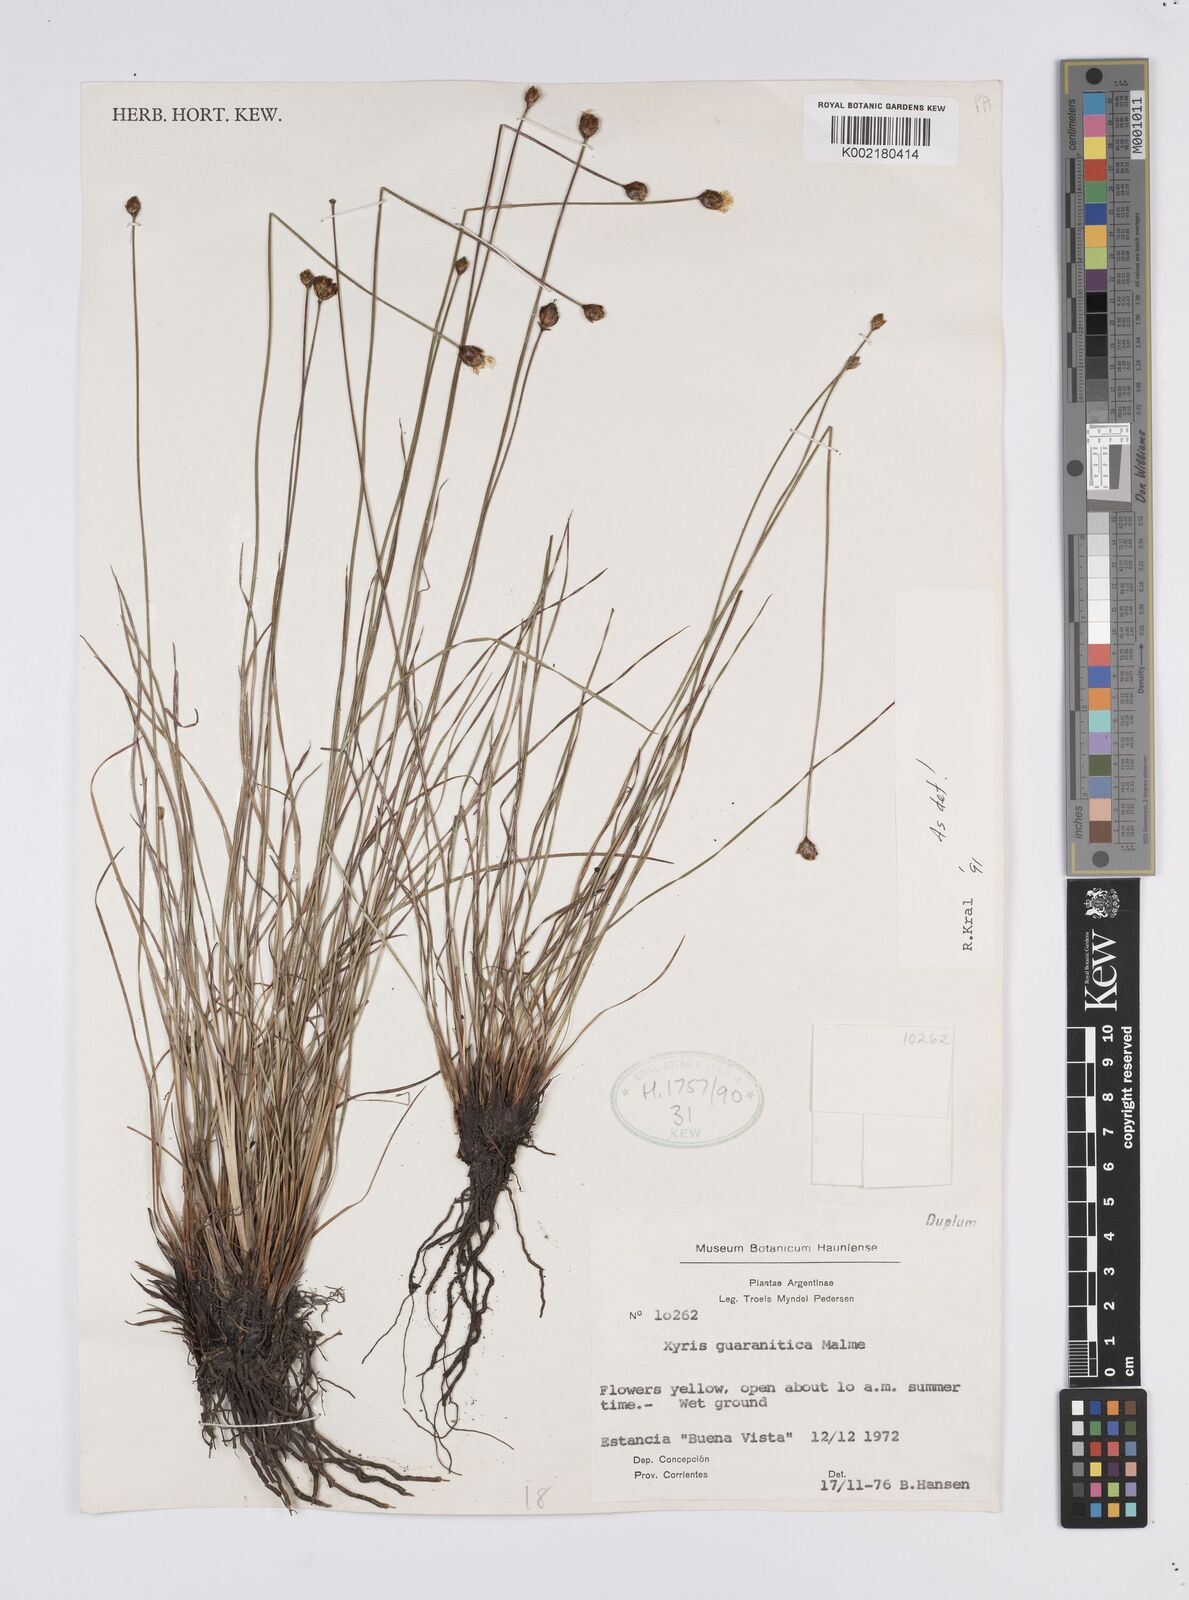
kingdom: Plantae
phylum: Tracheophyta
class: Liliopsida
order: Poales
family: Xyridaceae
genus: Xyris
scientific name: Xyris guaranitica
